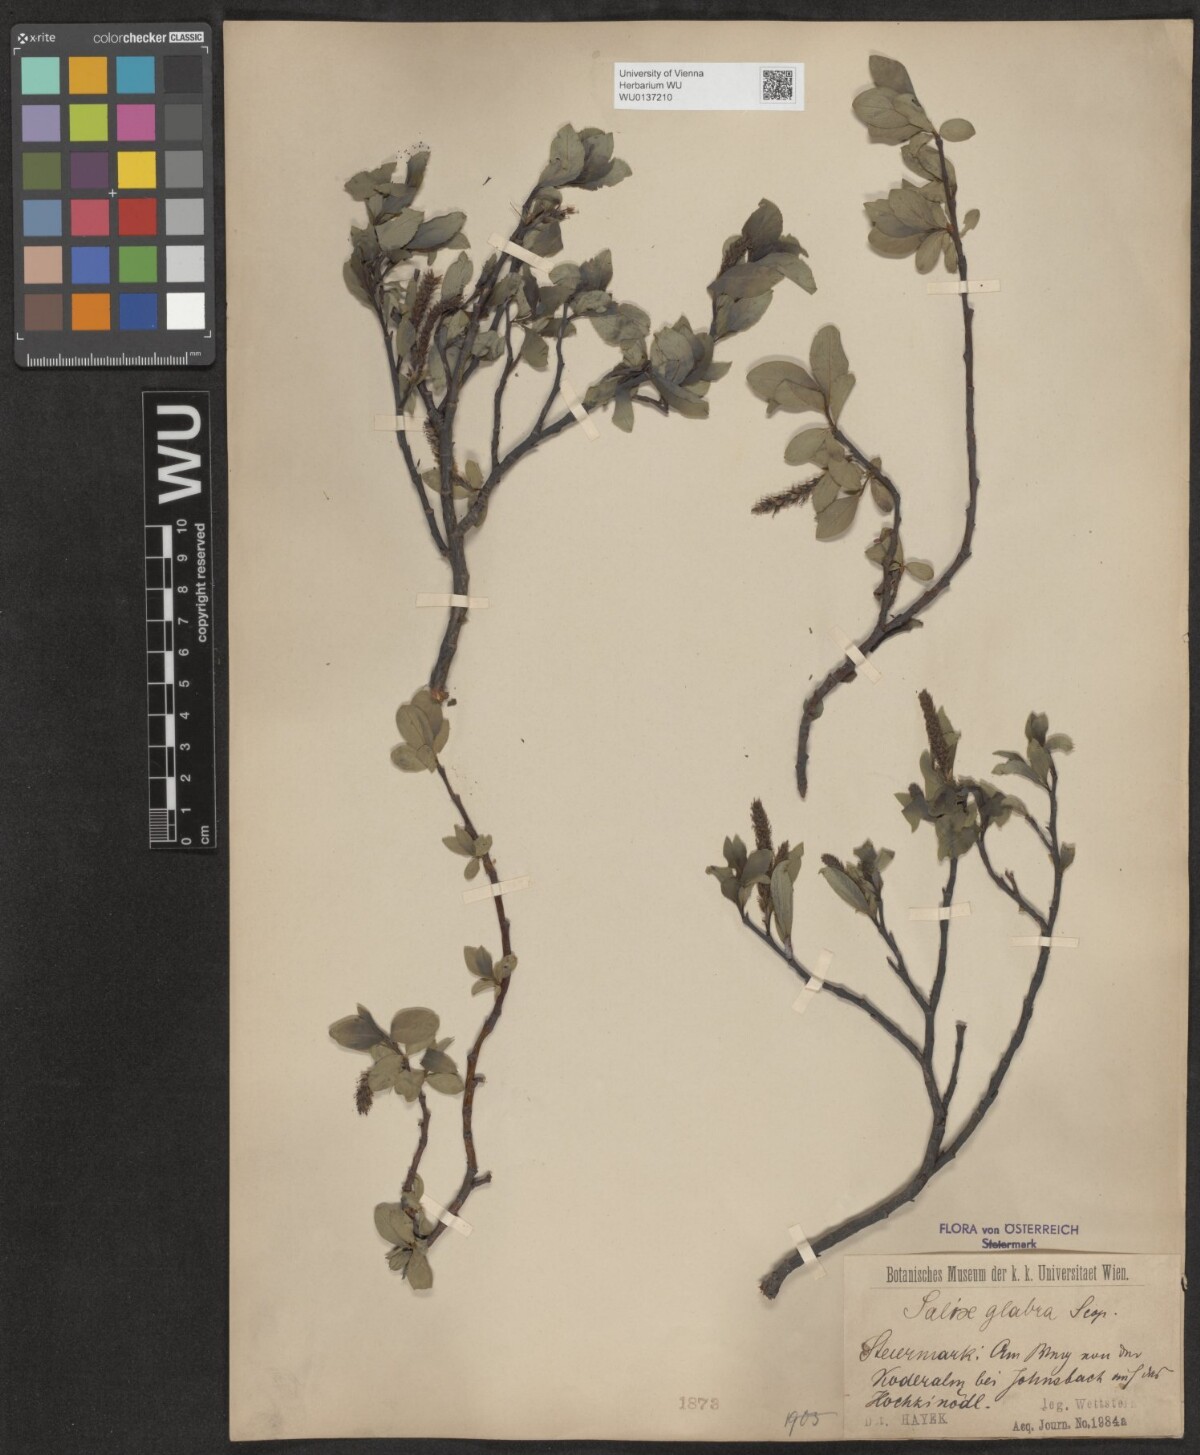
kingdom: Plantae
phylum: Tracheophyta
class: Magnoliopsida
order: Malpighiales
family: Salicaceae
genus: Salix
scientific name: Salix glabra
